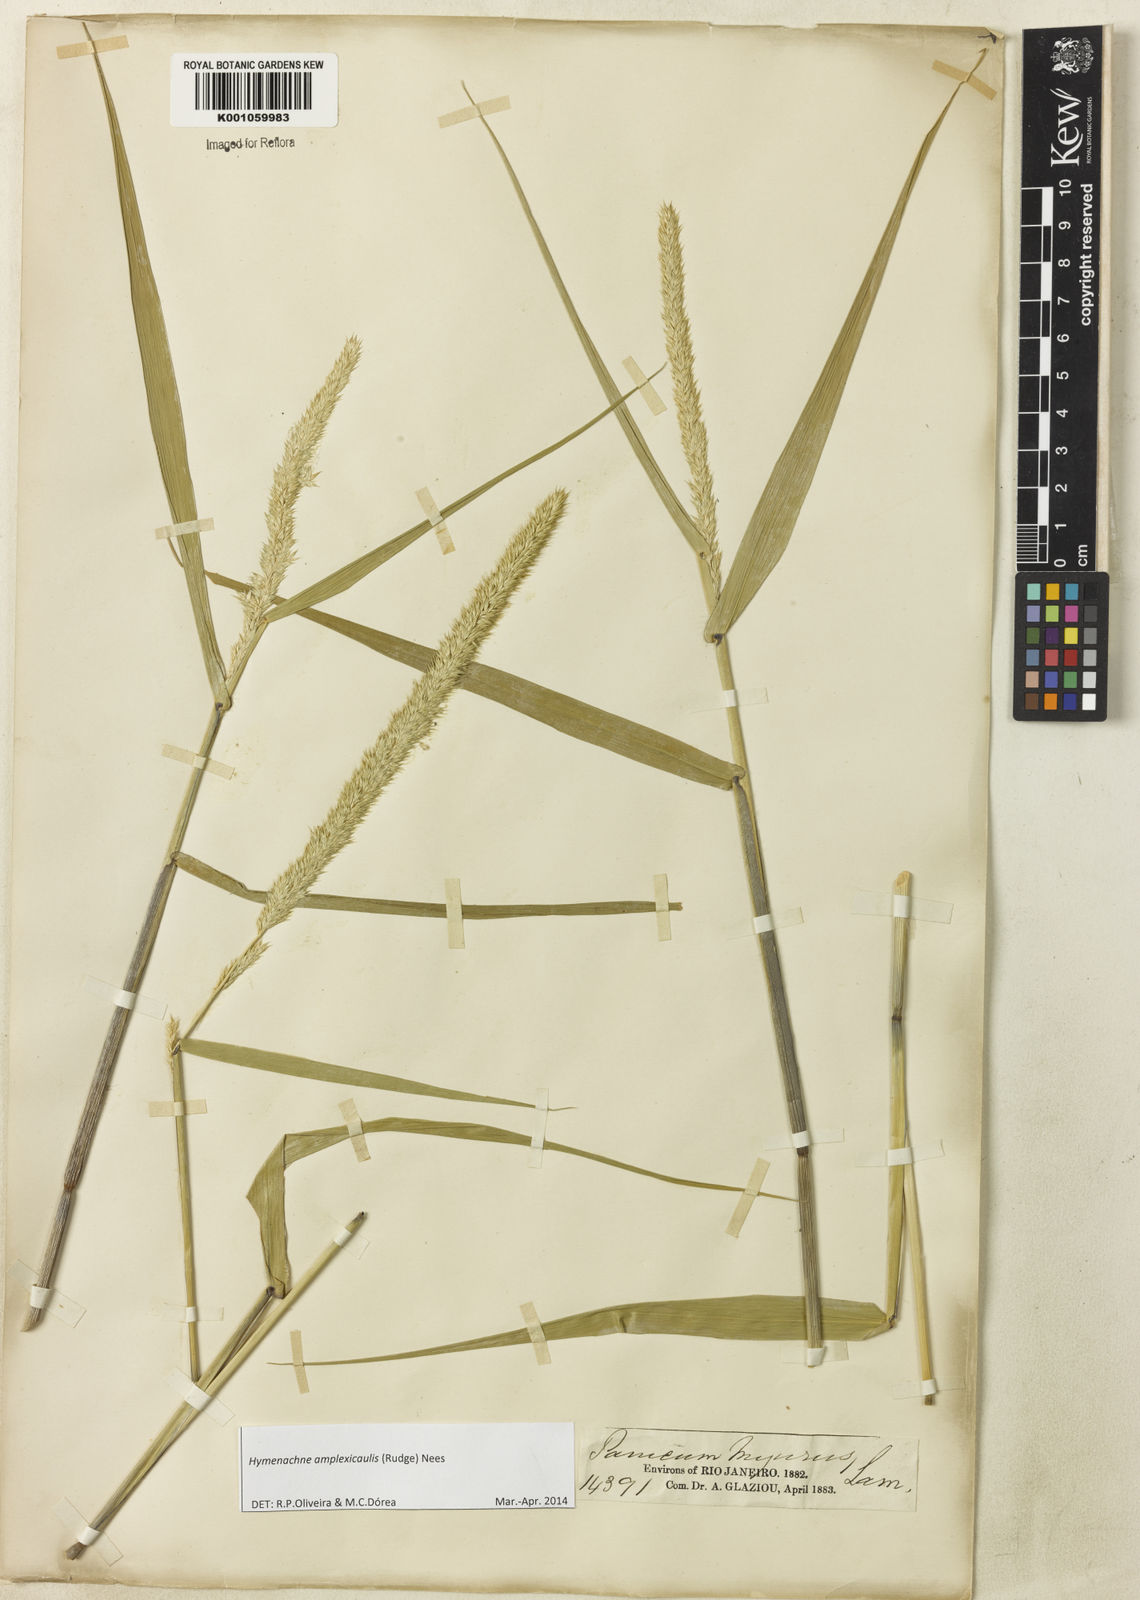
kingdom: Plantae
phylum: Tracheophyta
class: Liliopsida
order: Poales
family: Poaceae
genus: Hymenachne
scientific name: Hymenachne amplexicaulis
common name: Olive hymenachne
